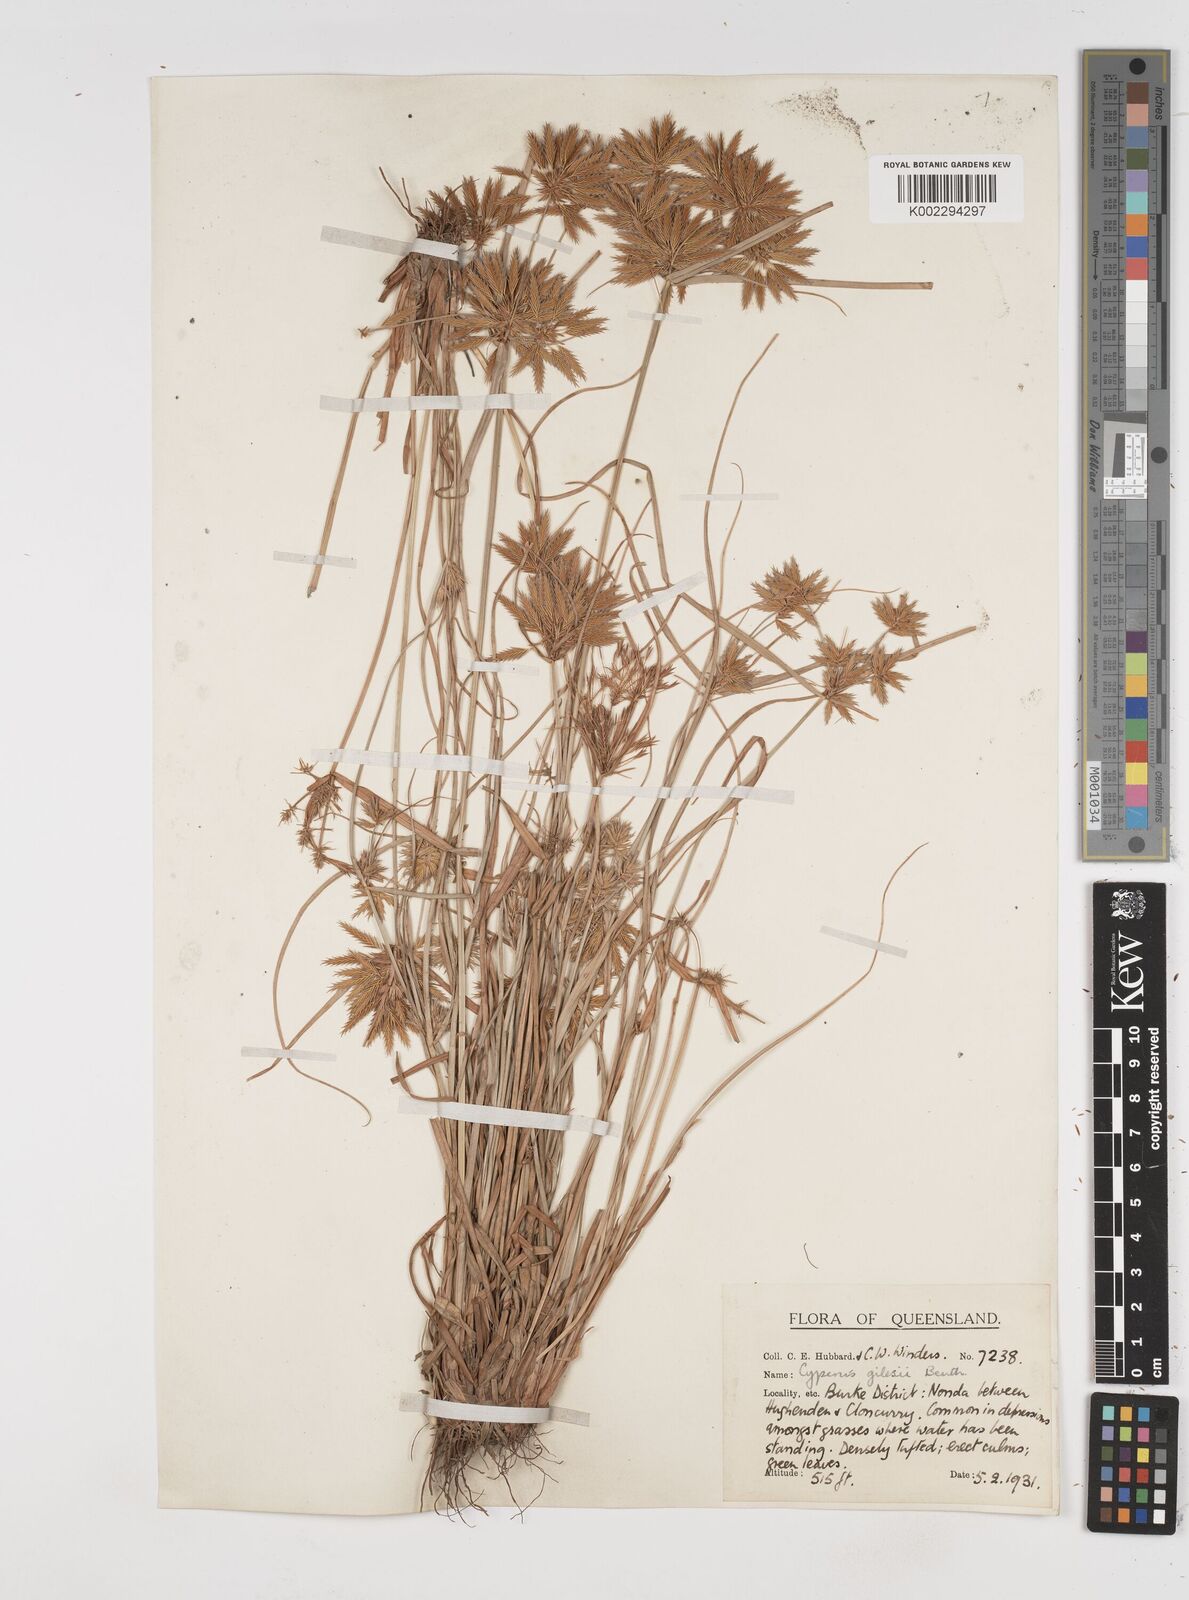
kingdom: Plantae
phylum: Tracheophyta
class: Liliopsida
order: Poales
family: Cyperaceae
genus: Cyperus
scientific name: Cyperus gilesii
